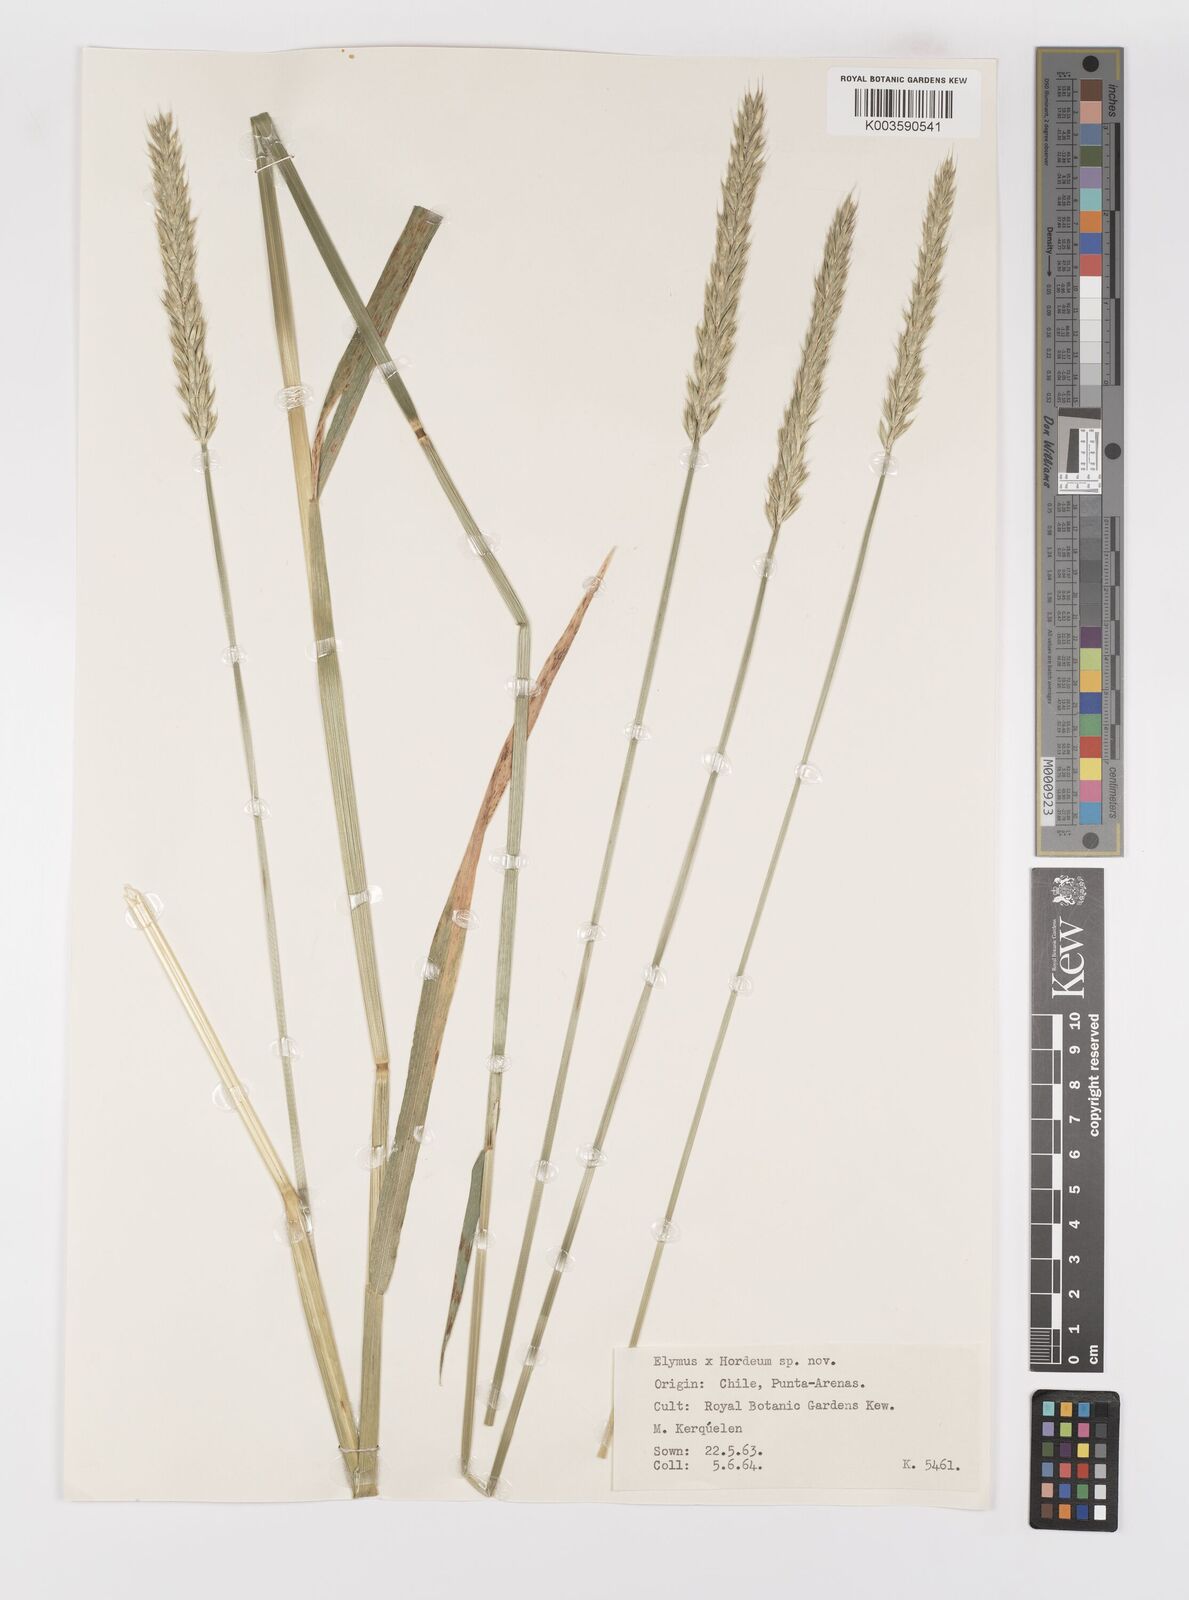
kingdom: Plantae
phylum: Tracheophyta
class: Liliopsida
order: Poales
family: Poaceae
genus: Elymus
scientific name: Elymus angulatus
